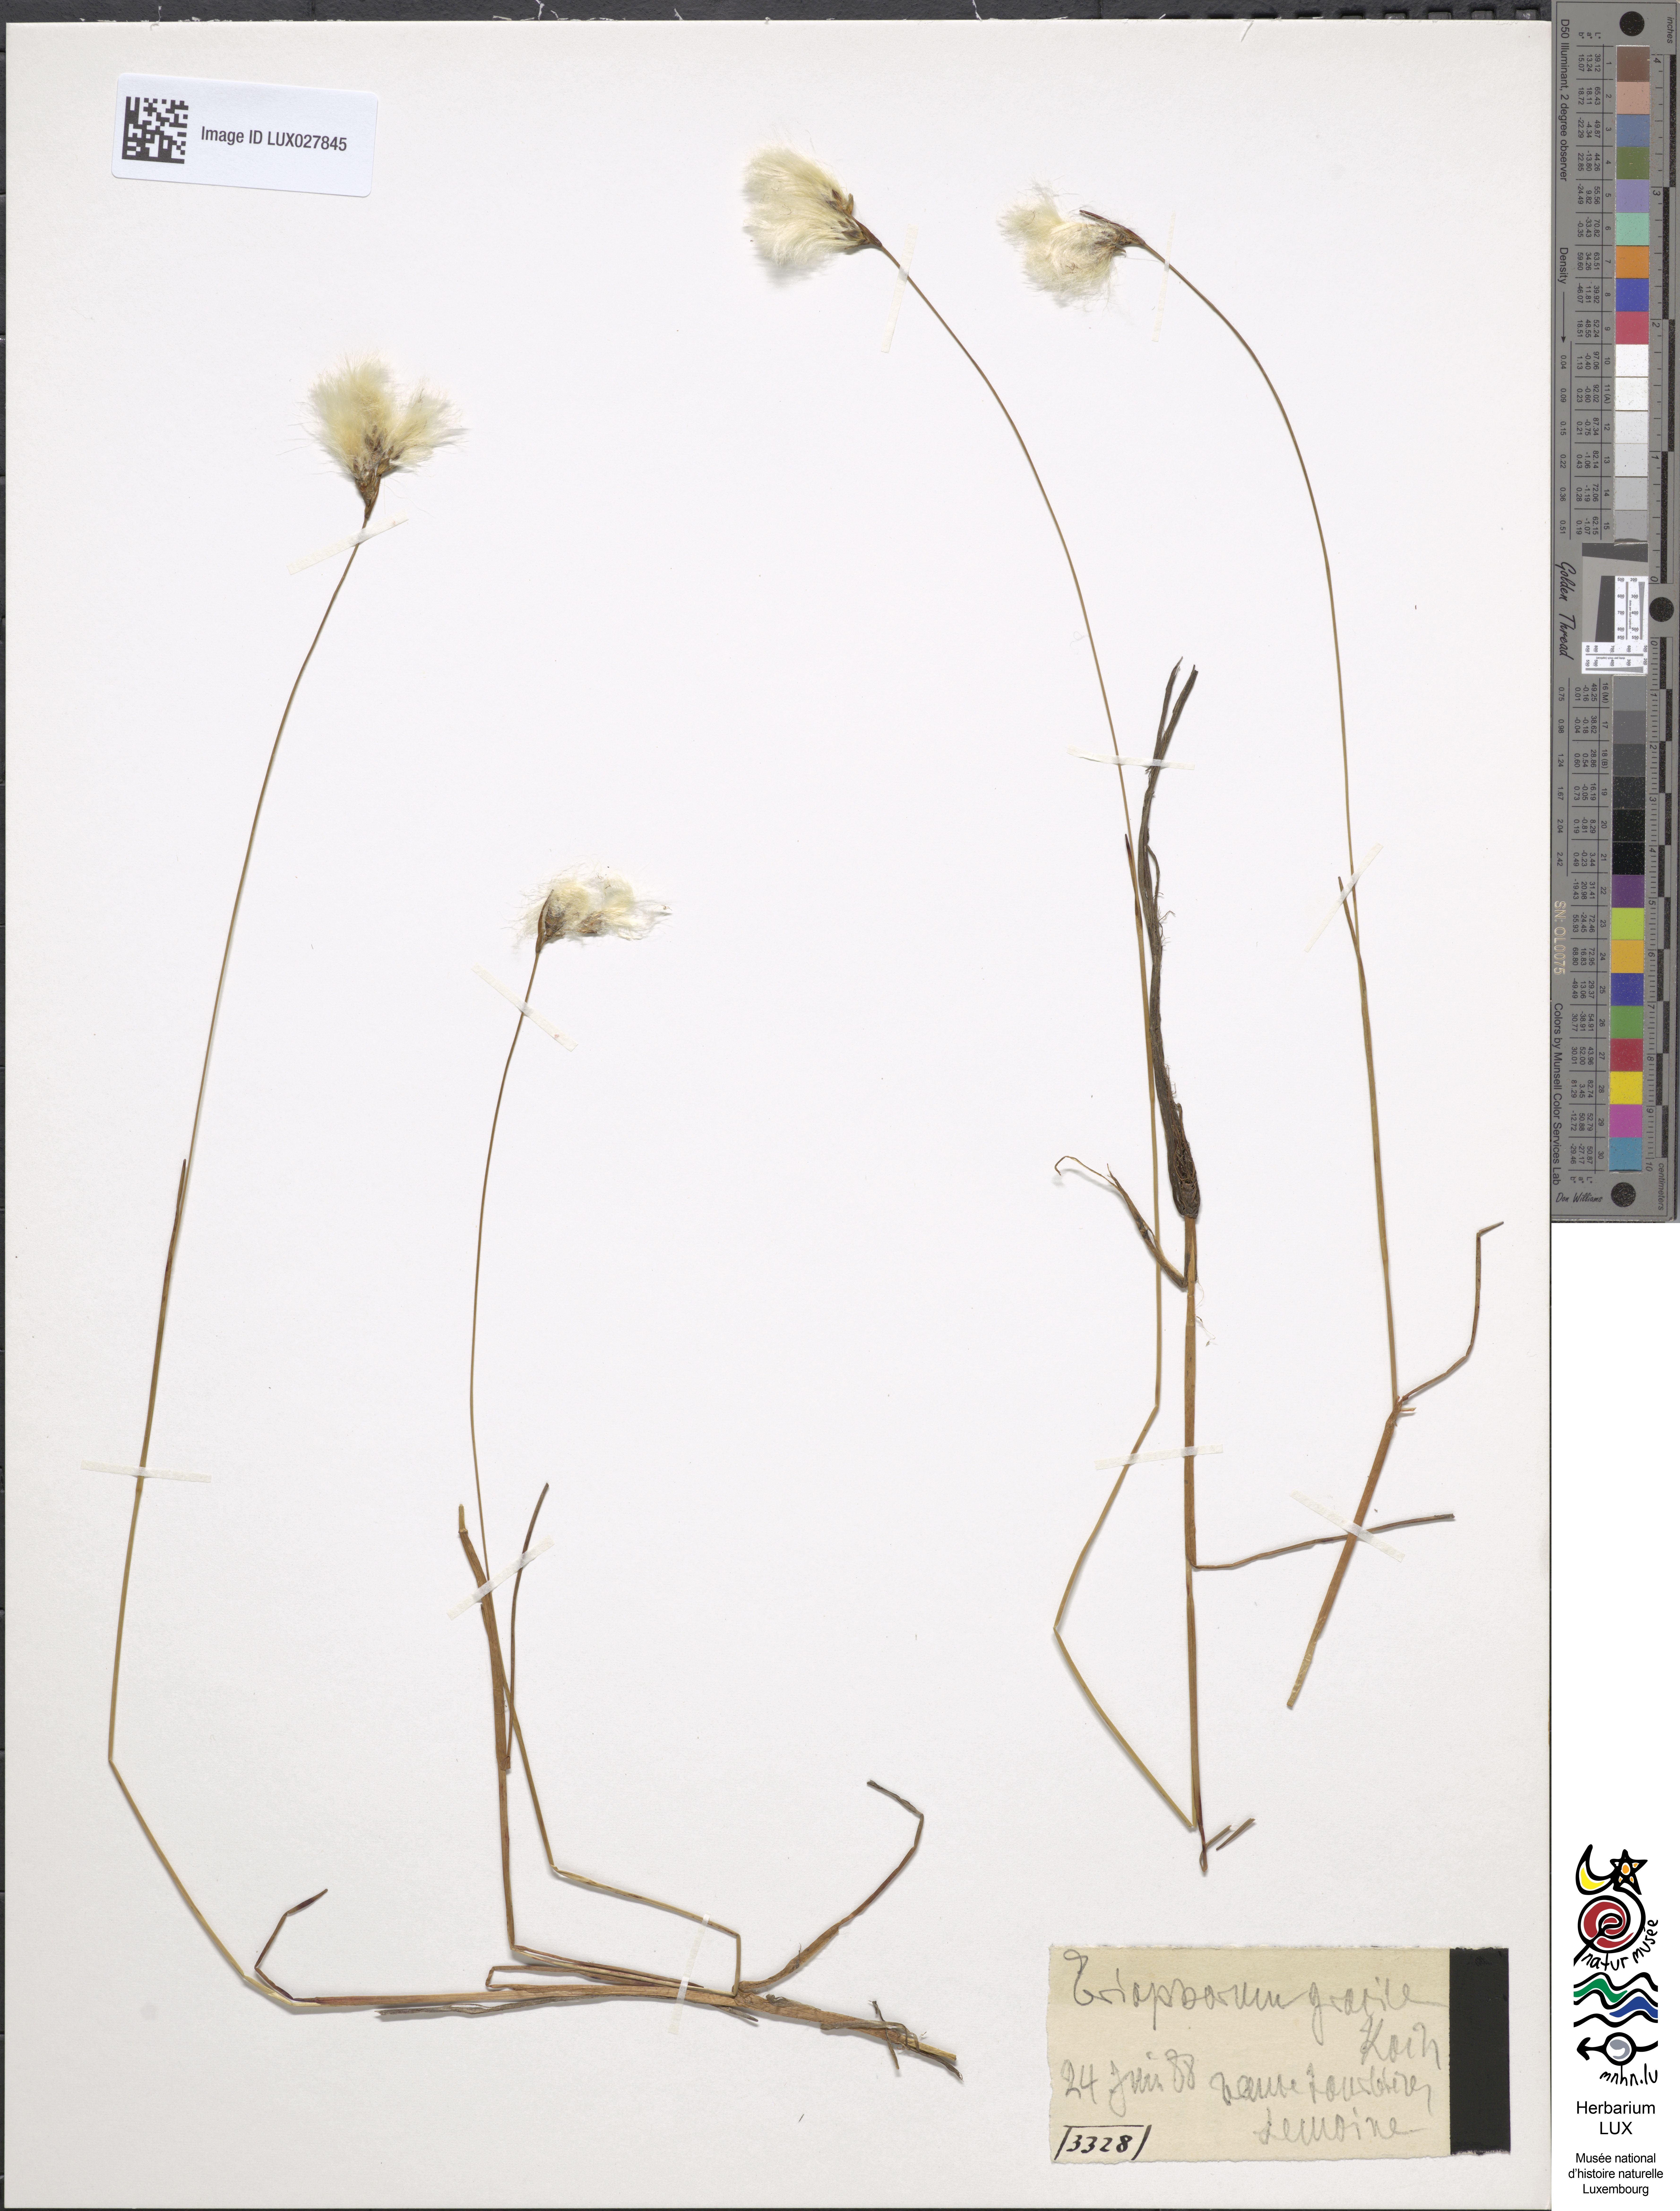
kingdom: Plantae
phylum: Tracheophyta
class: Liliopsida
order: Poales
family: Cyperaceae
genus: Eriophorum
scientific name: Eriophorum gracile
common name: Slender cottongrass
